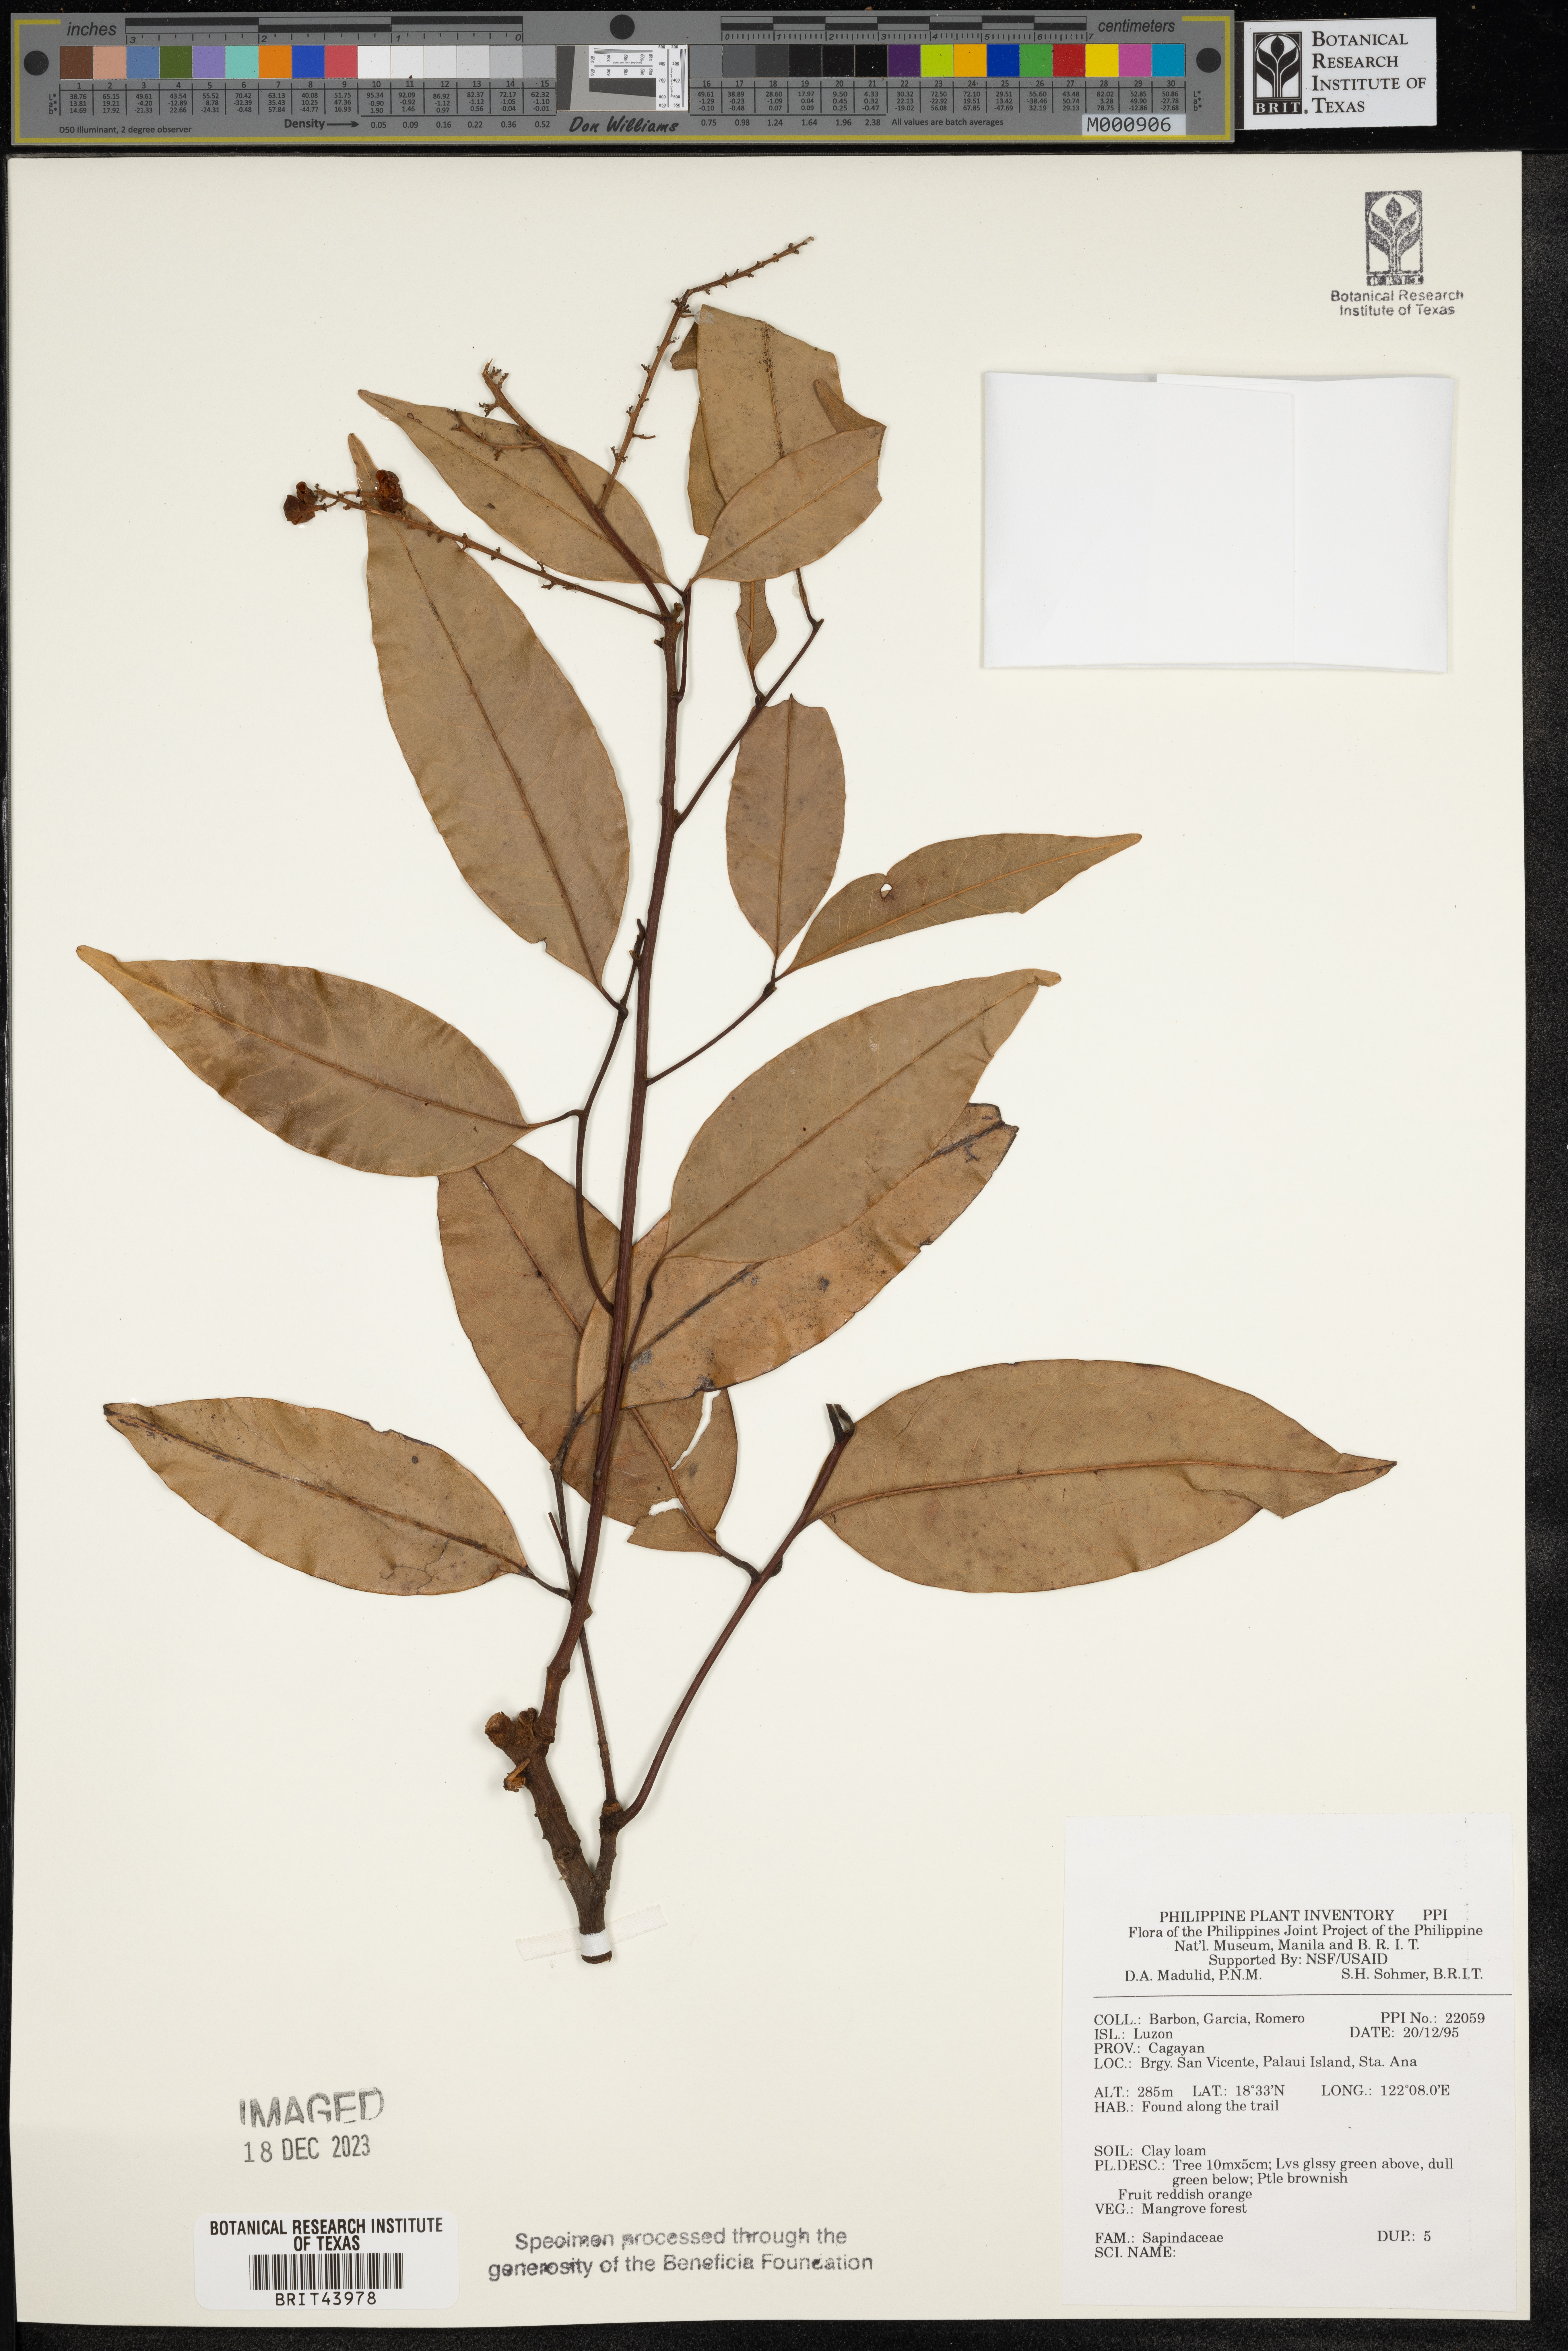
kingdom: Plantae
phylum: Tracheophyta
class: Magnoliopsida
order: Sapindales
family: Sapindaceae
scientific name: Sapindaceae
